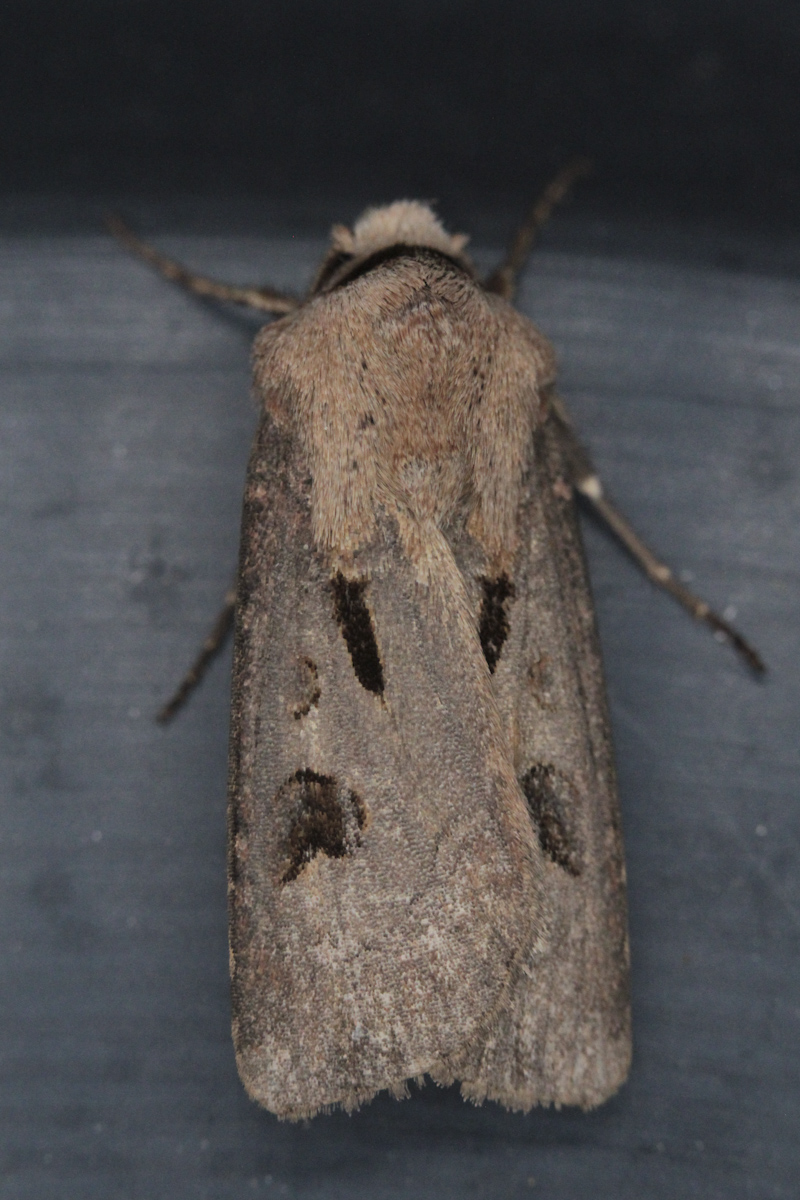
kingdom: Animalia
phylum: Arthropoda
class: Insecta
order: Lepidoptera
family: Noctuidae
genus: Agrotis
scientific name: Agrotis exclamationis
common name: Heart and dart
